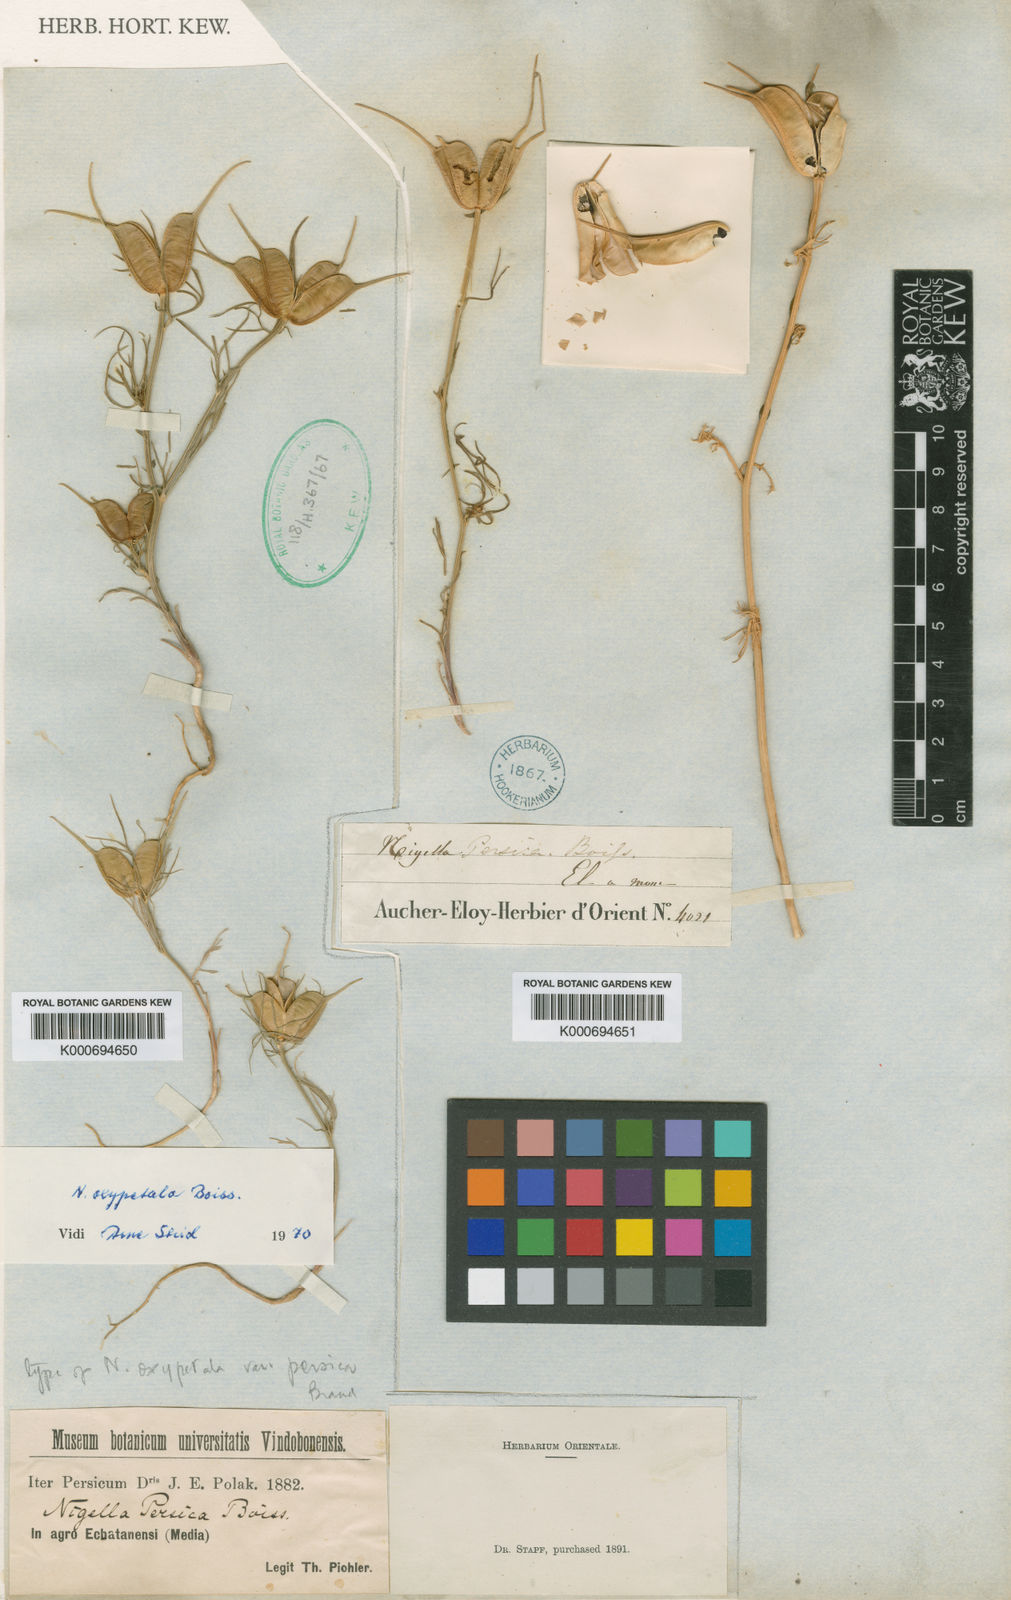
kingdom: Plantae
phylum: Tracheophyta
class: Magnoliopsida
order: Ranunculales
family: Ranunculaceae
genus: Nigella
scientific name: Nigella oxypetala
